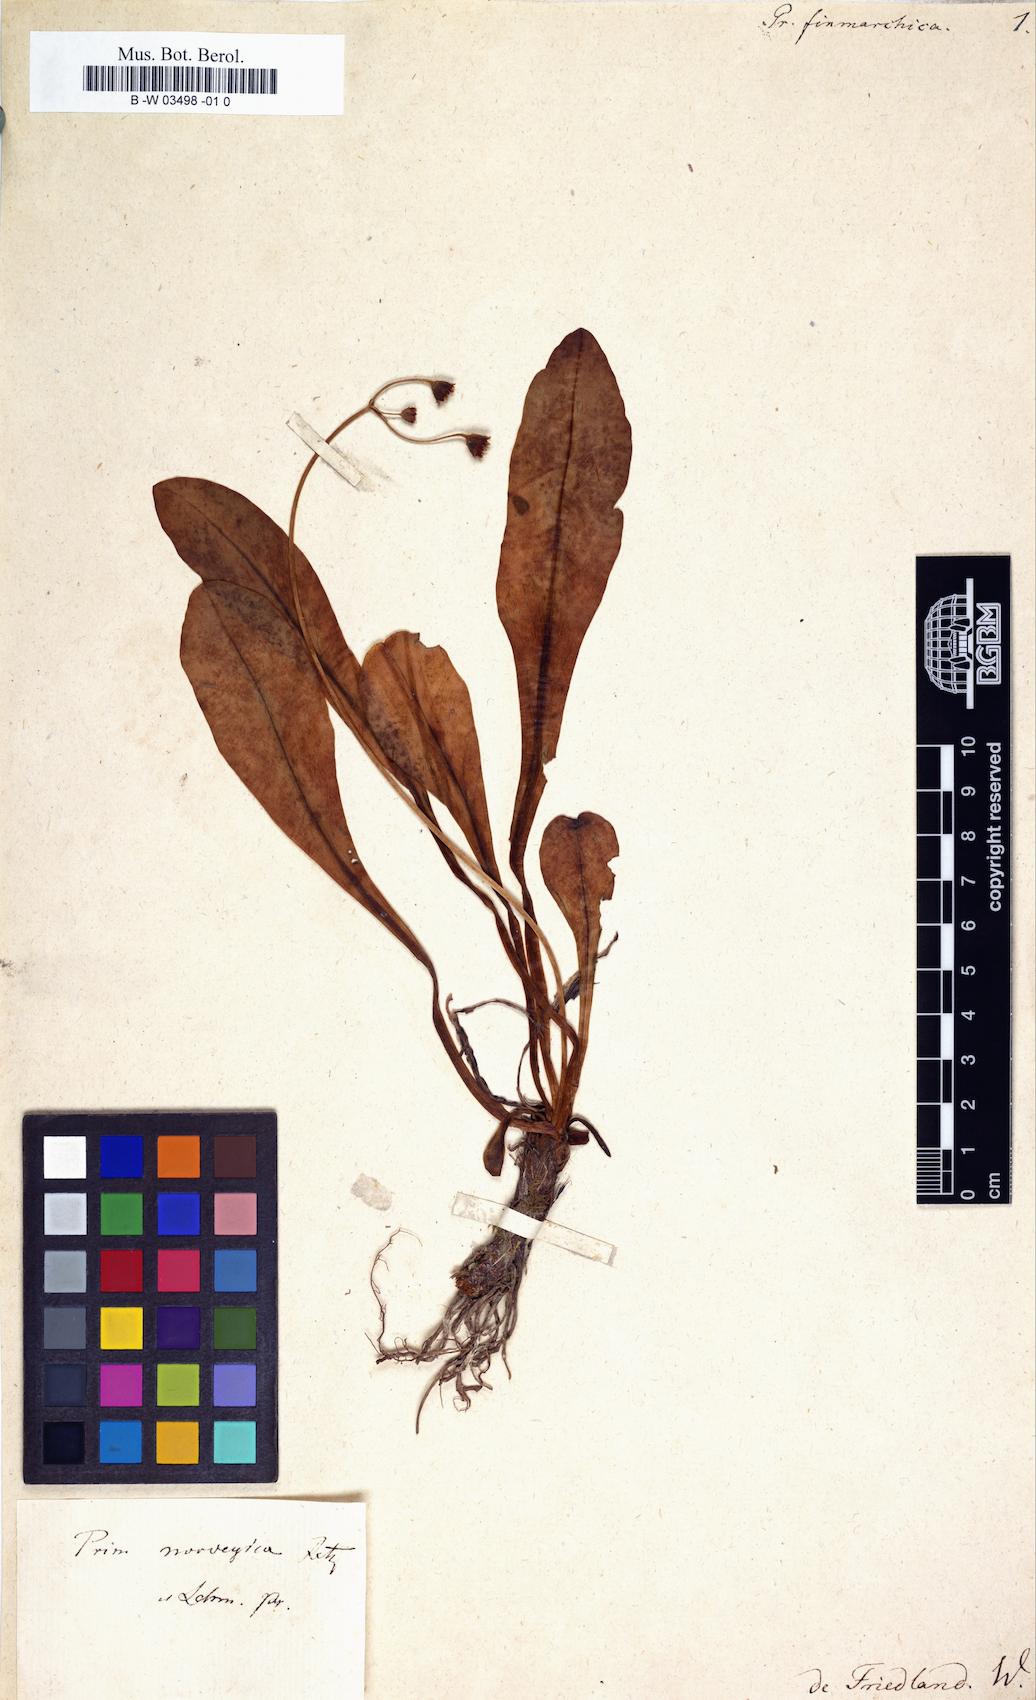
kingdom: Plantae
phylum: Tracheophyta
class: Magnoliopsida
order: Ericales
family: Primulaceae
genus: Primula
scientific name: Primula nutans
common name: Siberian primrose
